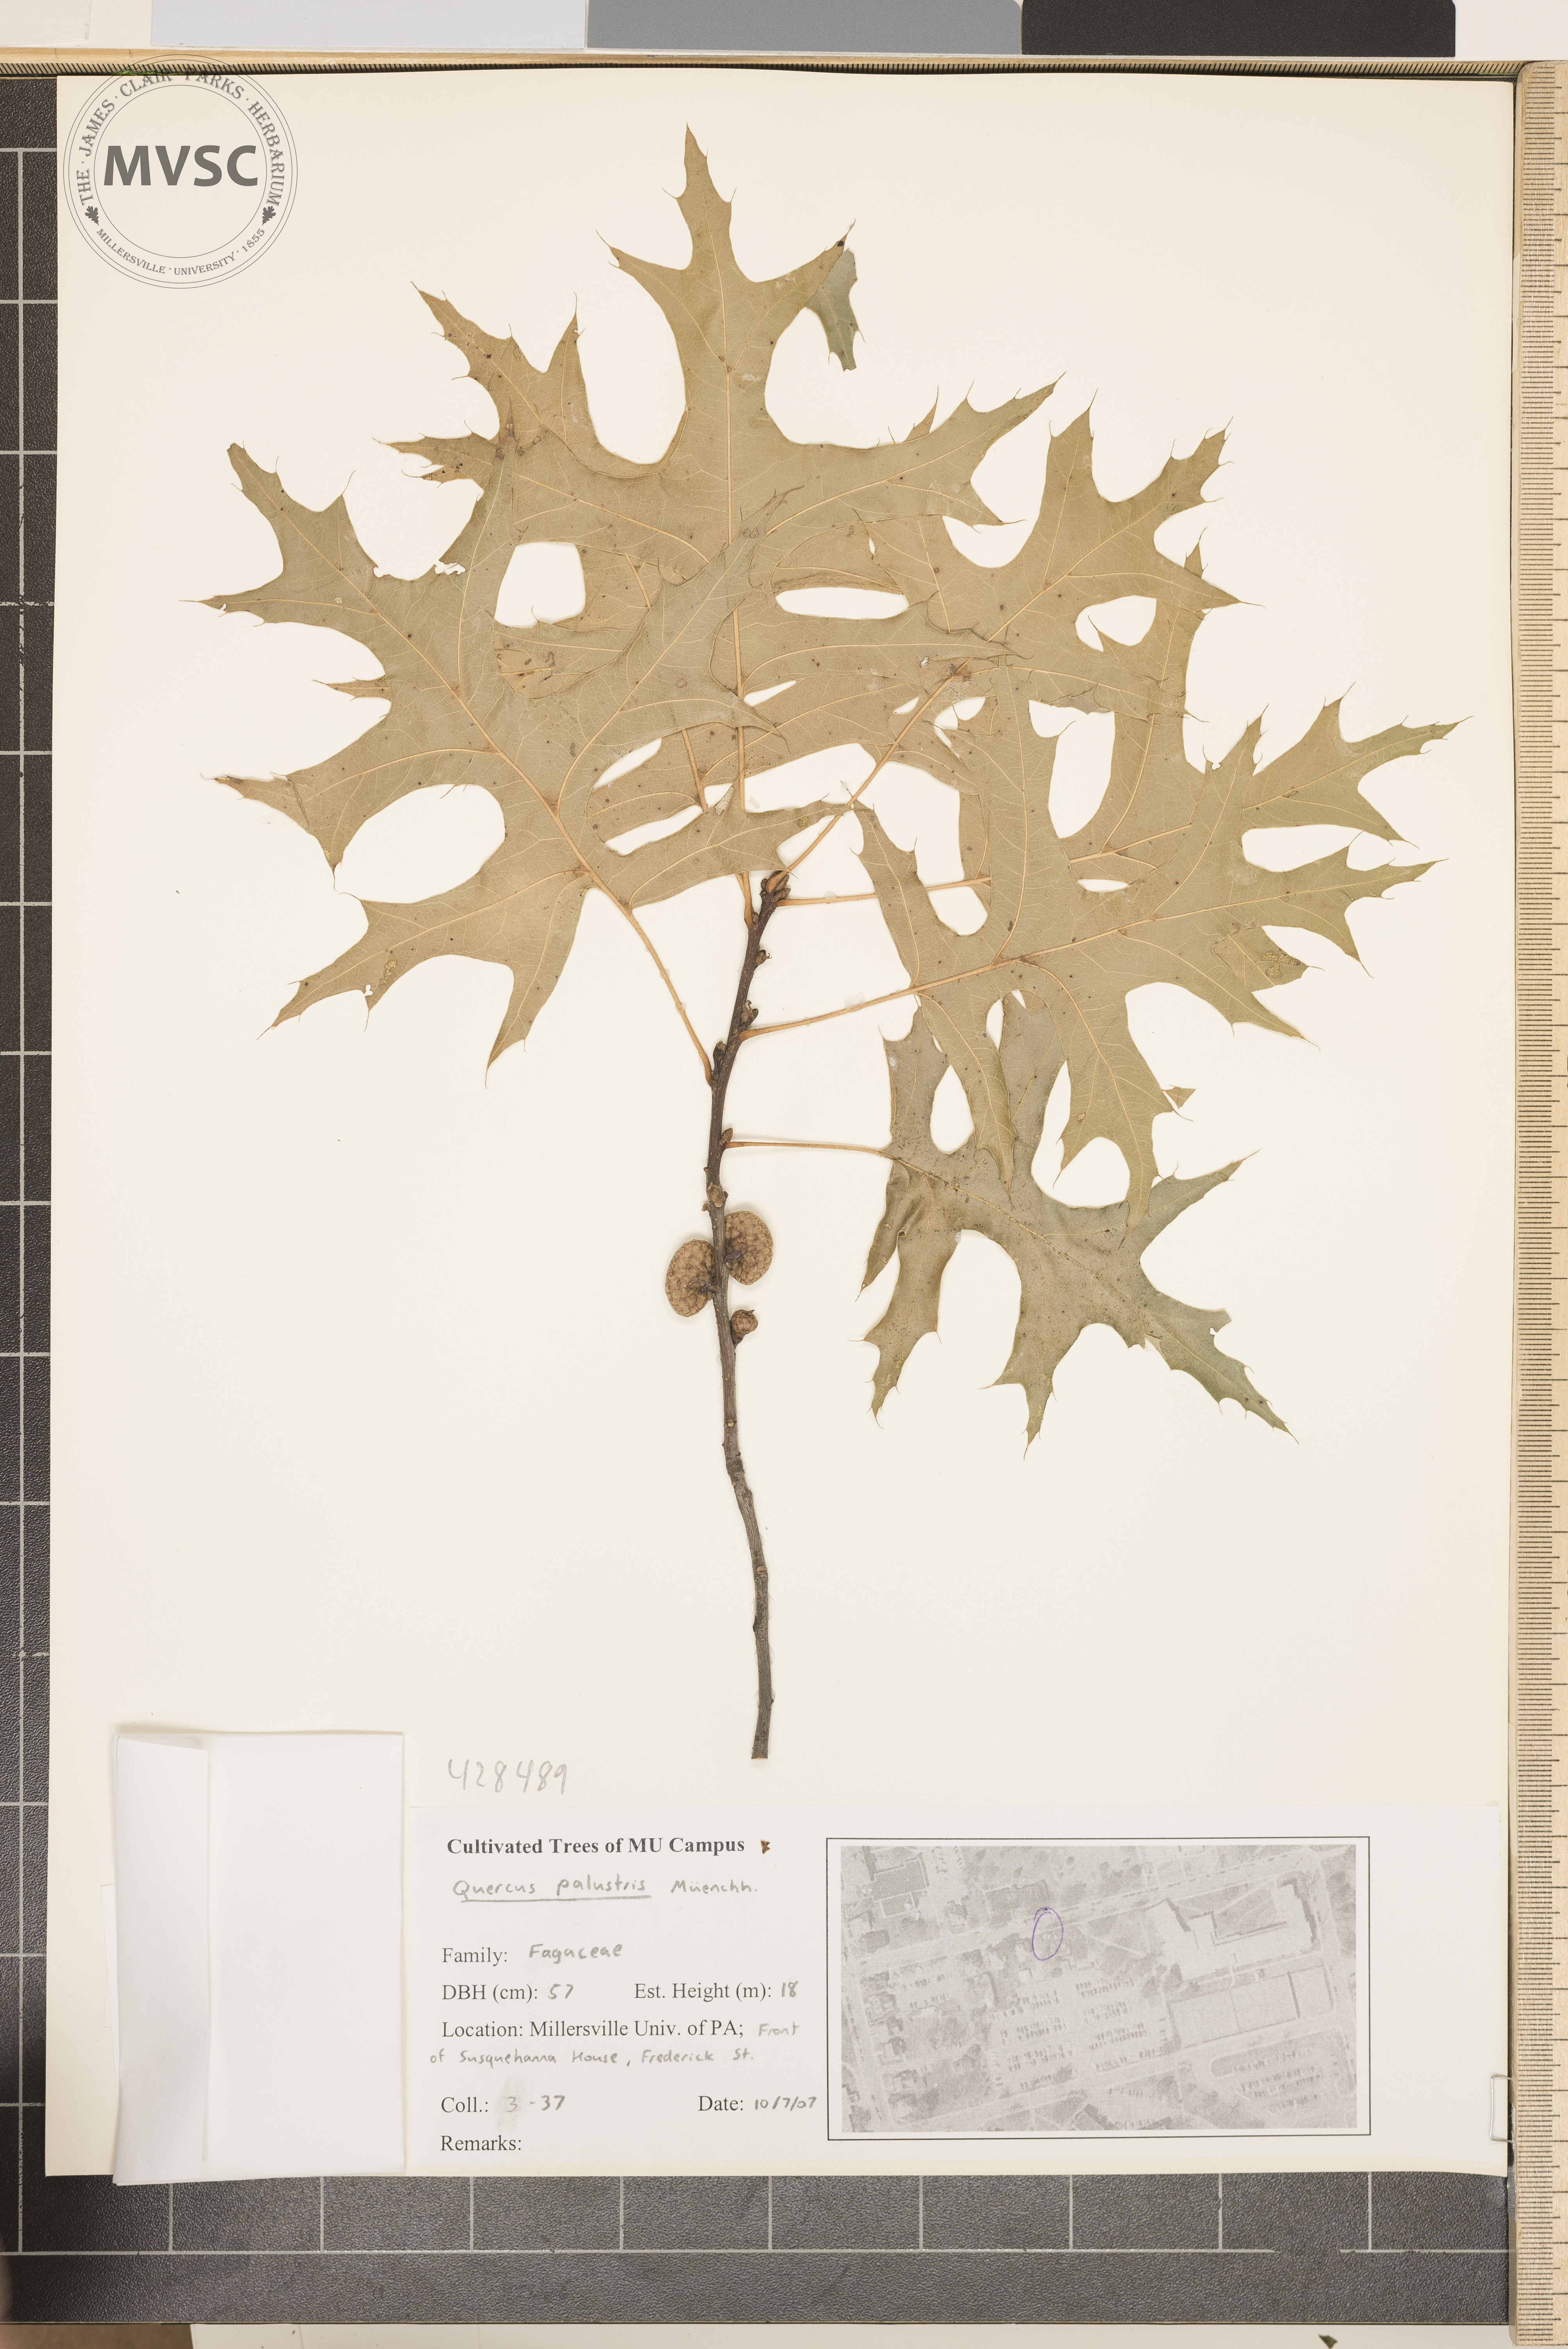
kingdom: Plantae
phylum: Tracheophyta
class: Magnoliopsida
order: Fagales
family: Fagaceae
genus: Quercus
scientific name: Quercus palustris
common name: Pin Oak
